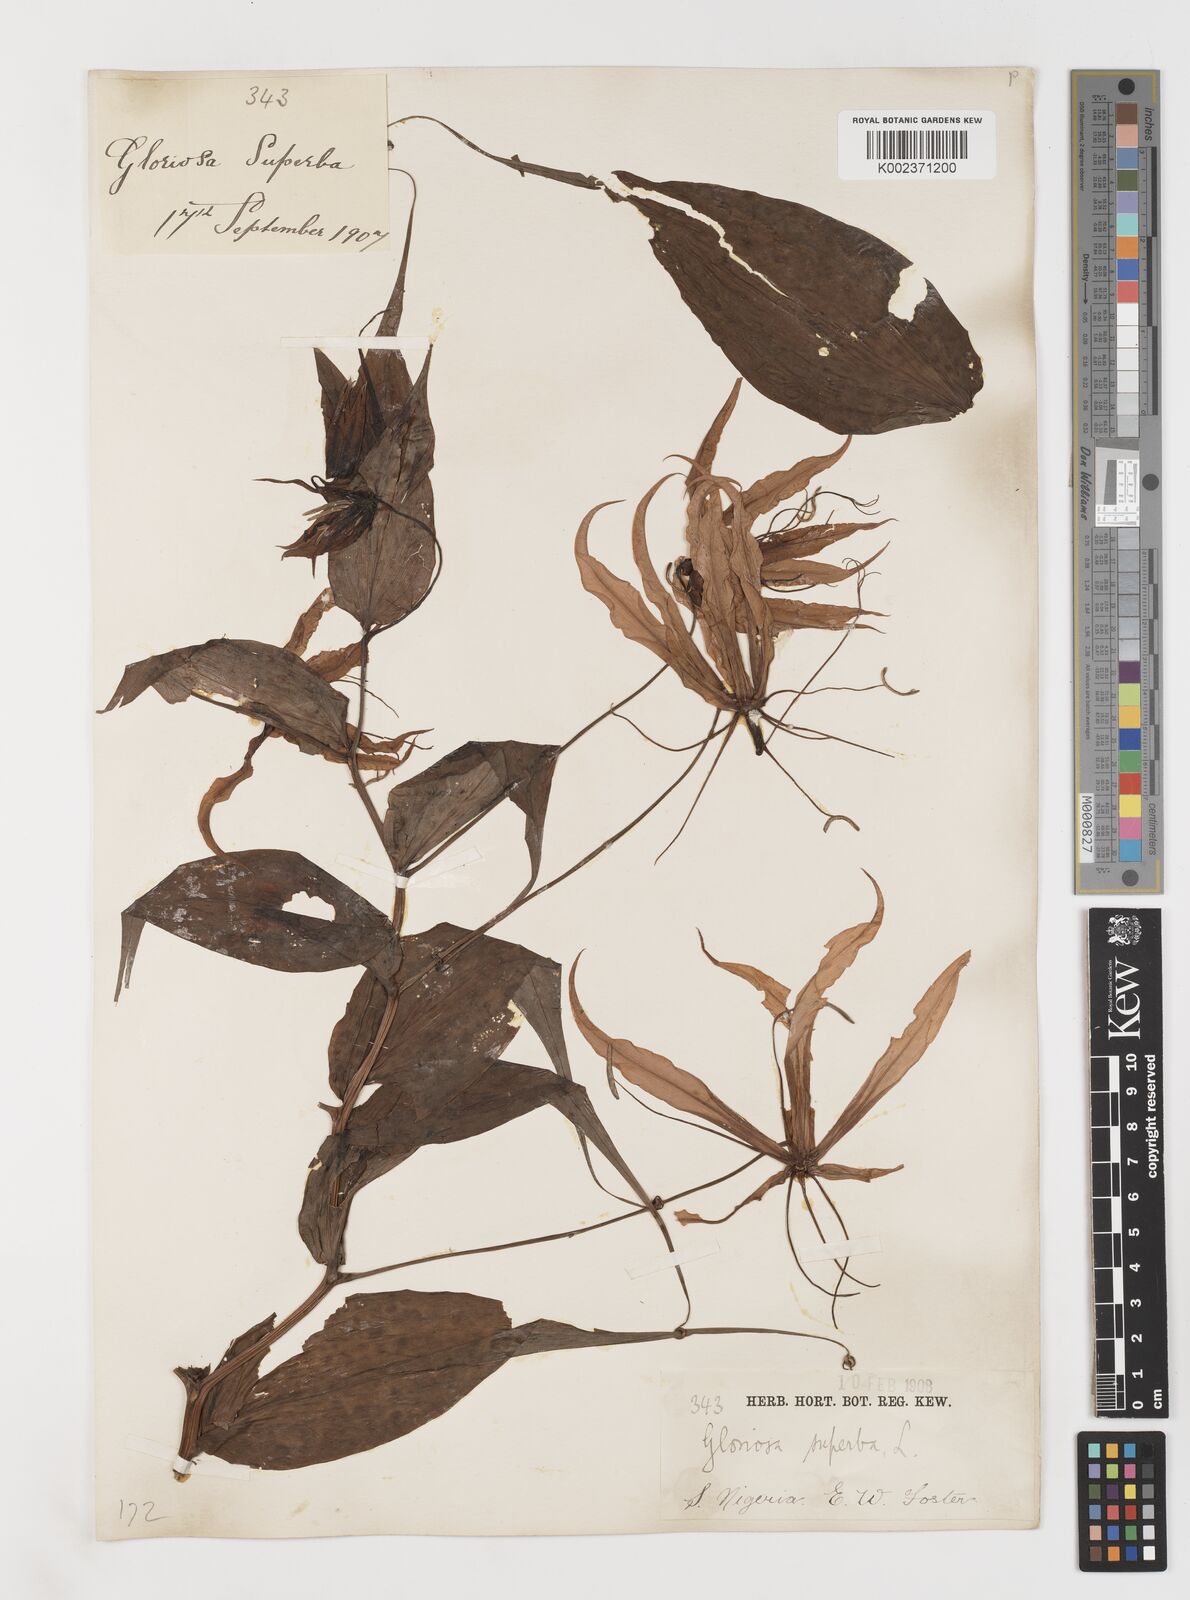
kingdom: Plantae
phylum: Tracheophyta
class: Liliopsida
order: Liliales
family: Colchicaceae
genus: Gloriosa
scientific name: Gloriosa simplex
